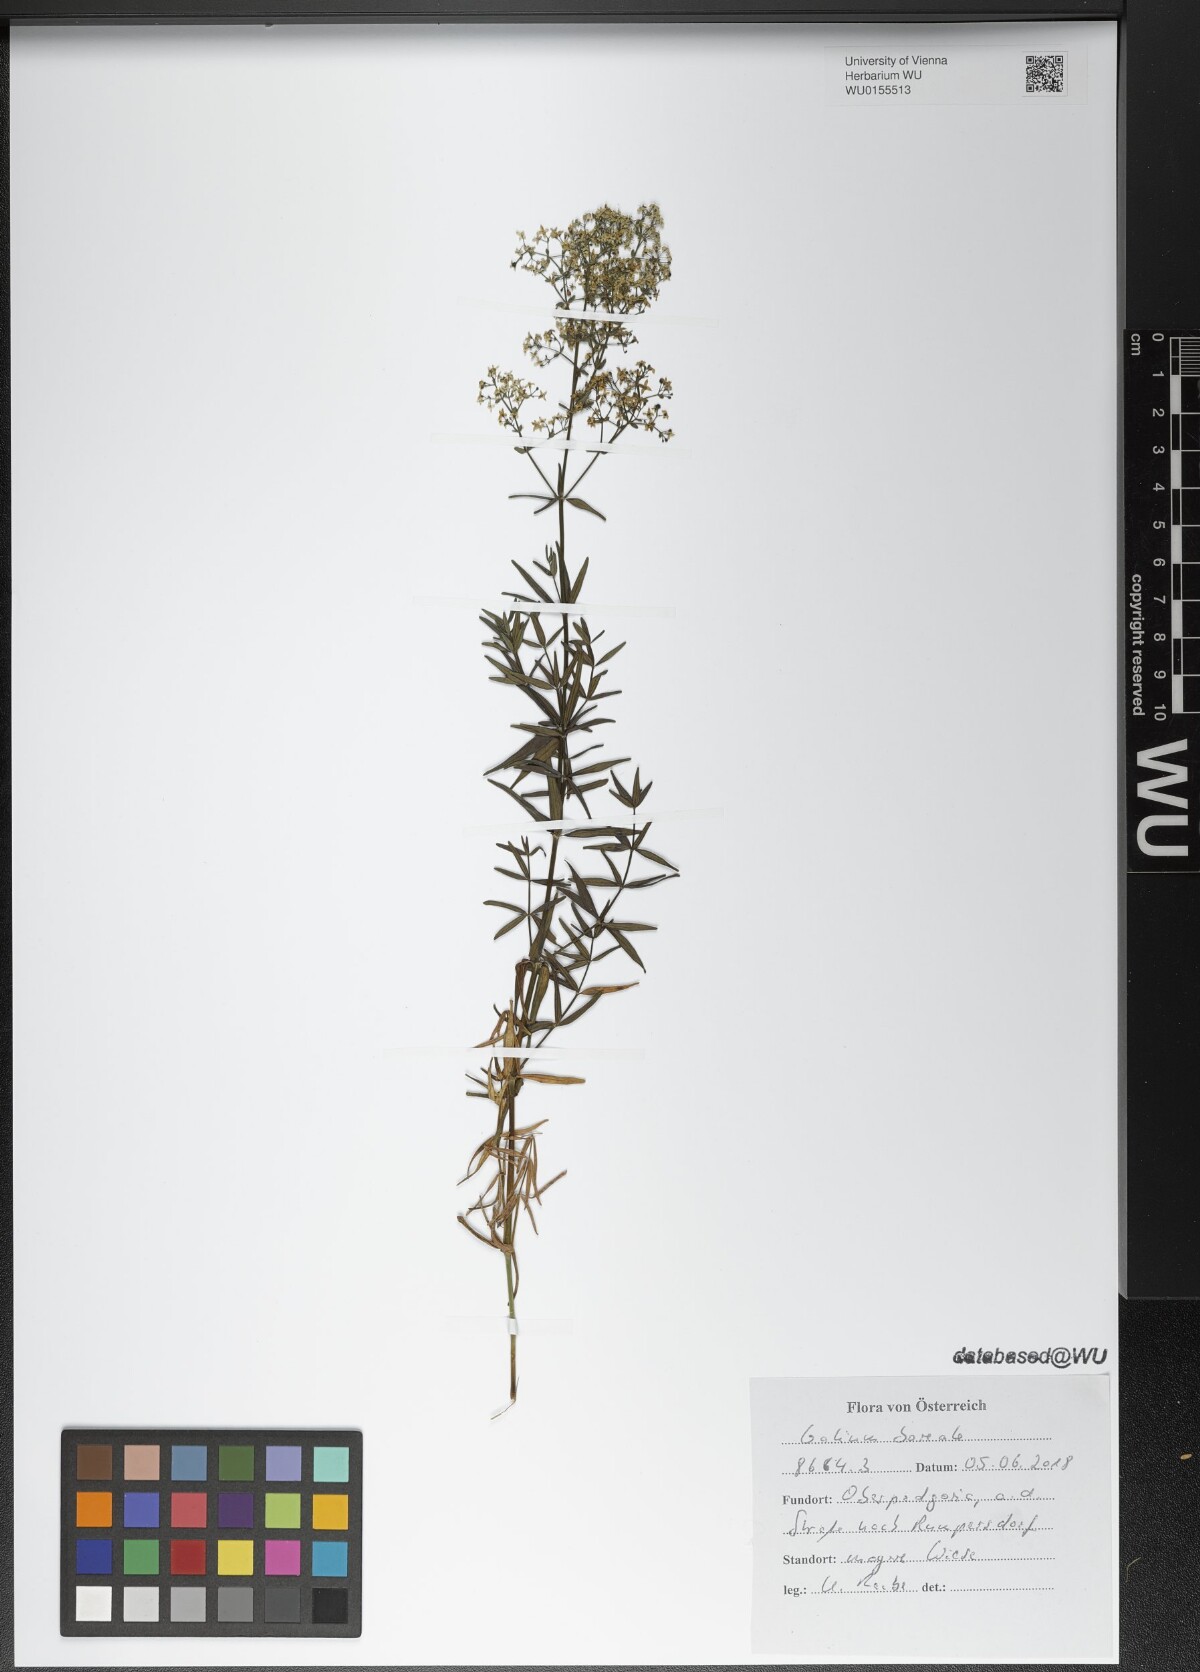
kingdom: Plantae
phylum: Tracheophyta
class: Magnoliopsida
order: Gentianales
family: Rubiaceae
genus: Galium
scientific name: Galium boreale
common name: Northern bedstraw
